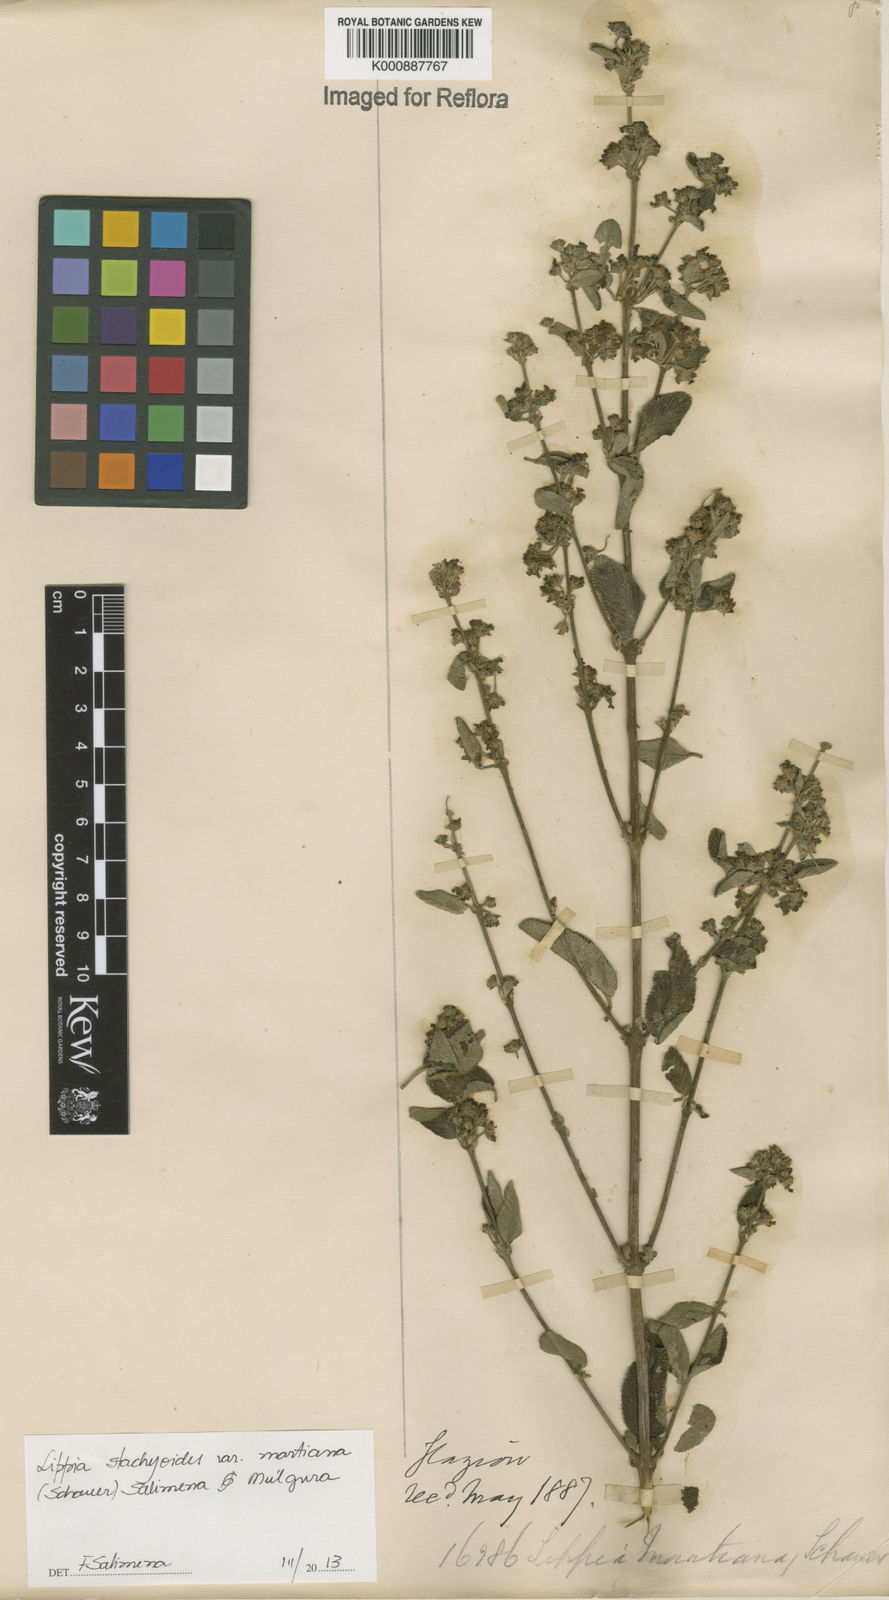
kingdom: Plantae
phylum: Tracheophyta
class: Magnoliopsida
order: Lamiales
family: Verbenaceae
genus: Lippia
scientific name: Lippia stachyoides
